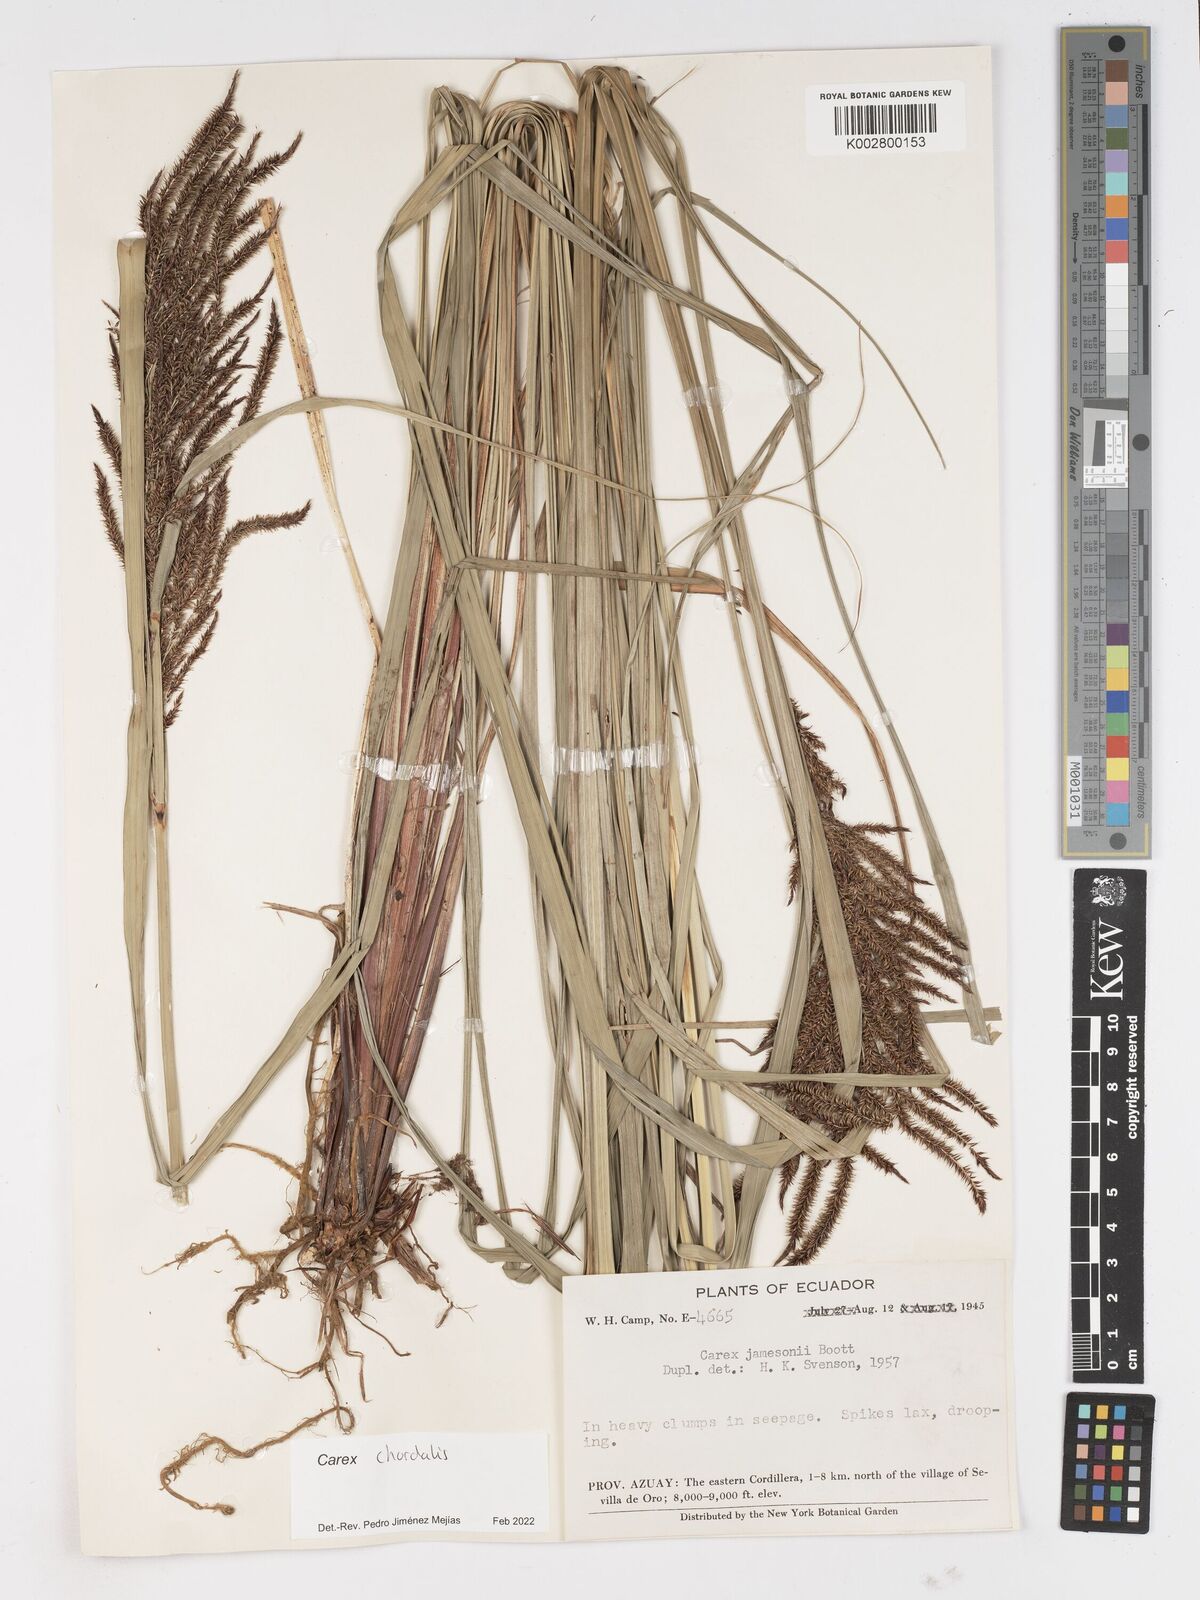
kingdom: Plantae
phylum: Tracheophyta
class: Liliopsida
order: Poales
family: Cyperaceae
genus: Carex
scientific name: Carex jamesonii
